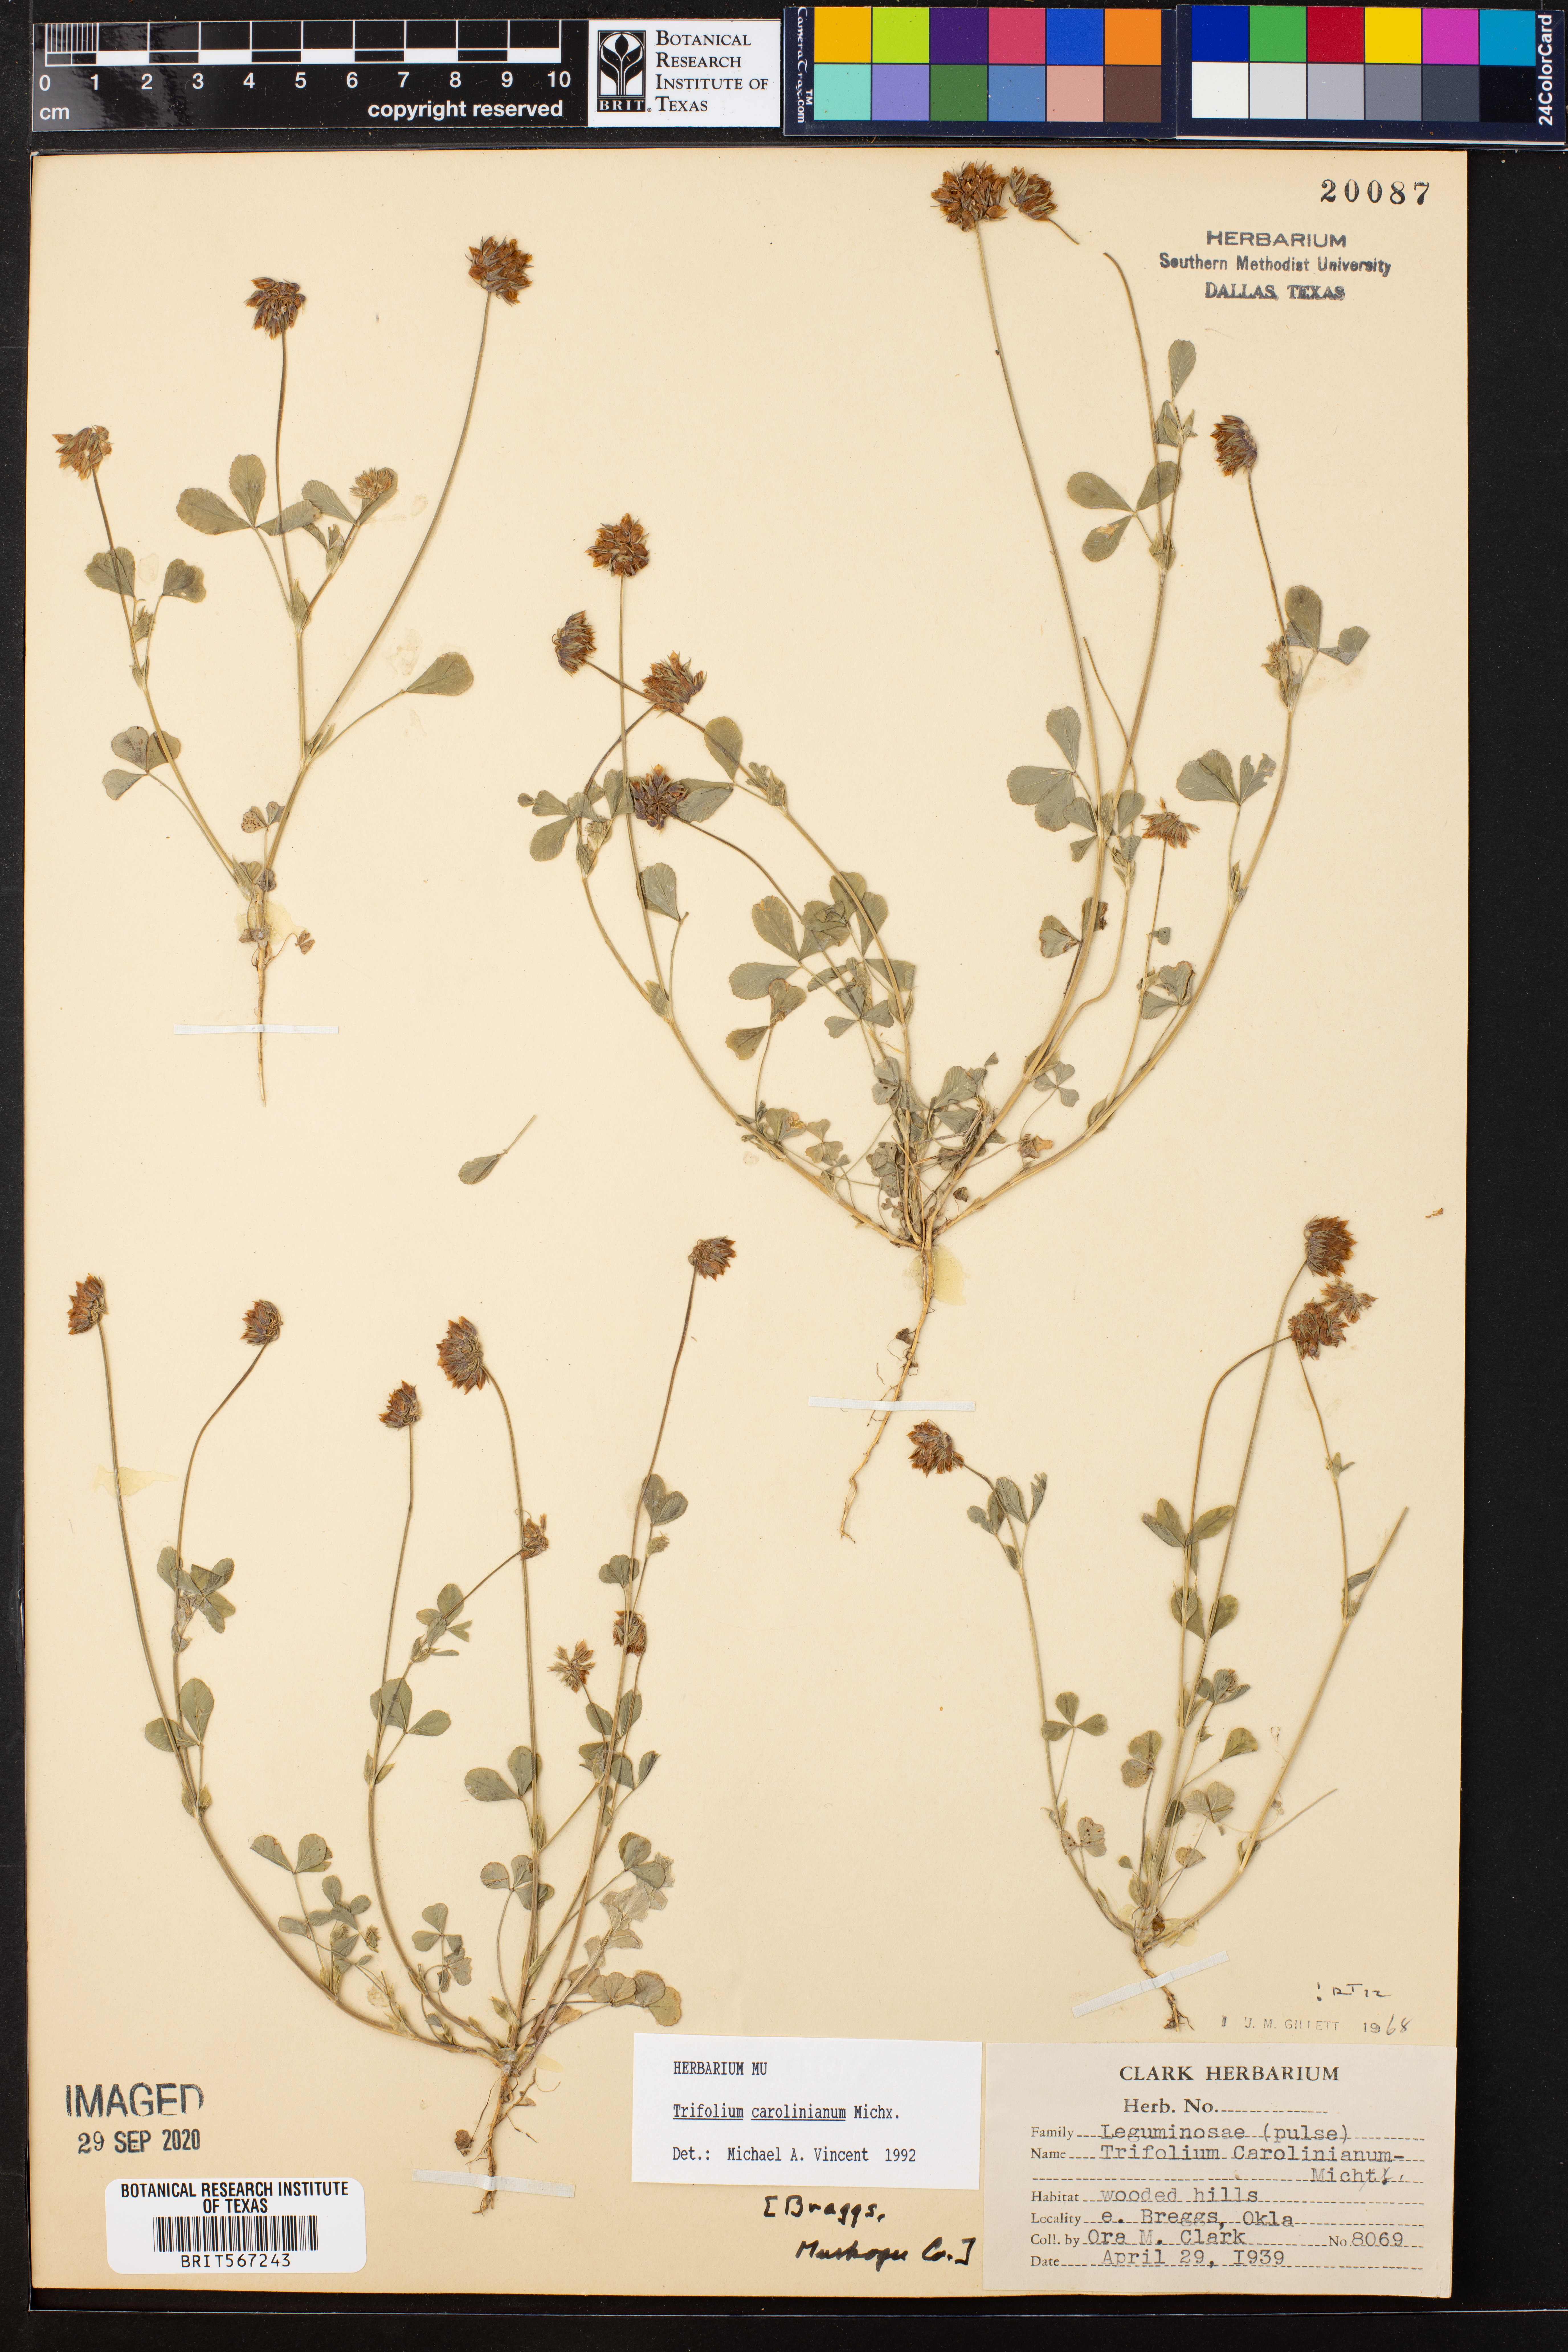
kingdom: Plantae
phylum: Tracheophyta
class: Magnoliopsida
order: Fabales
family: Fabaceae
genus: Trifolium
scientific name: Trifolium carolinianum
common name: Wild white clover
